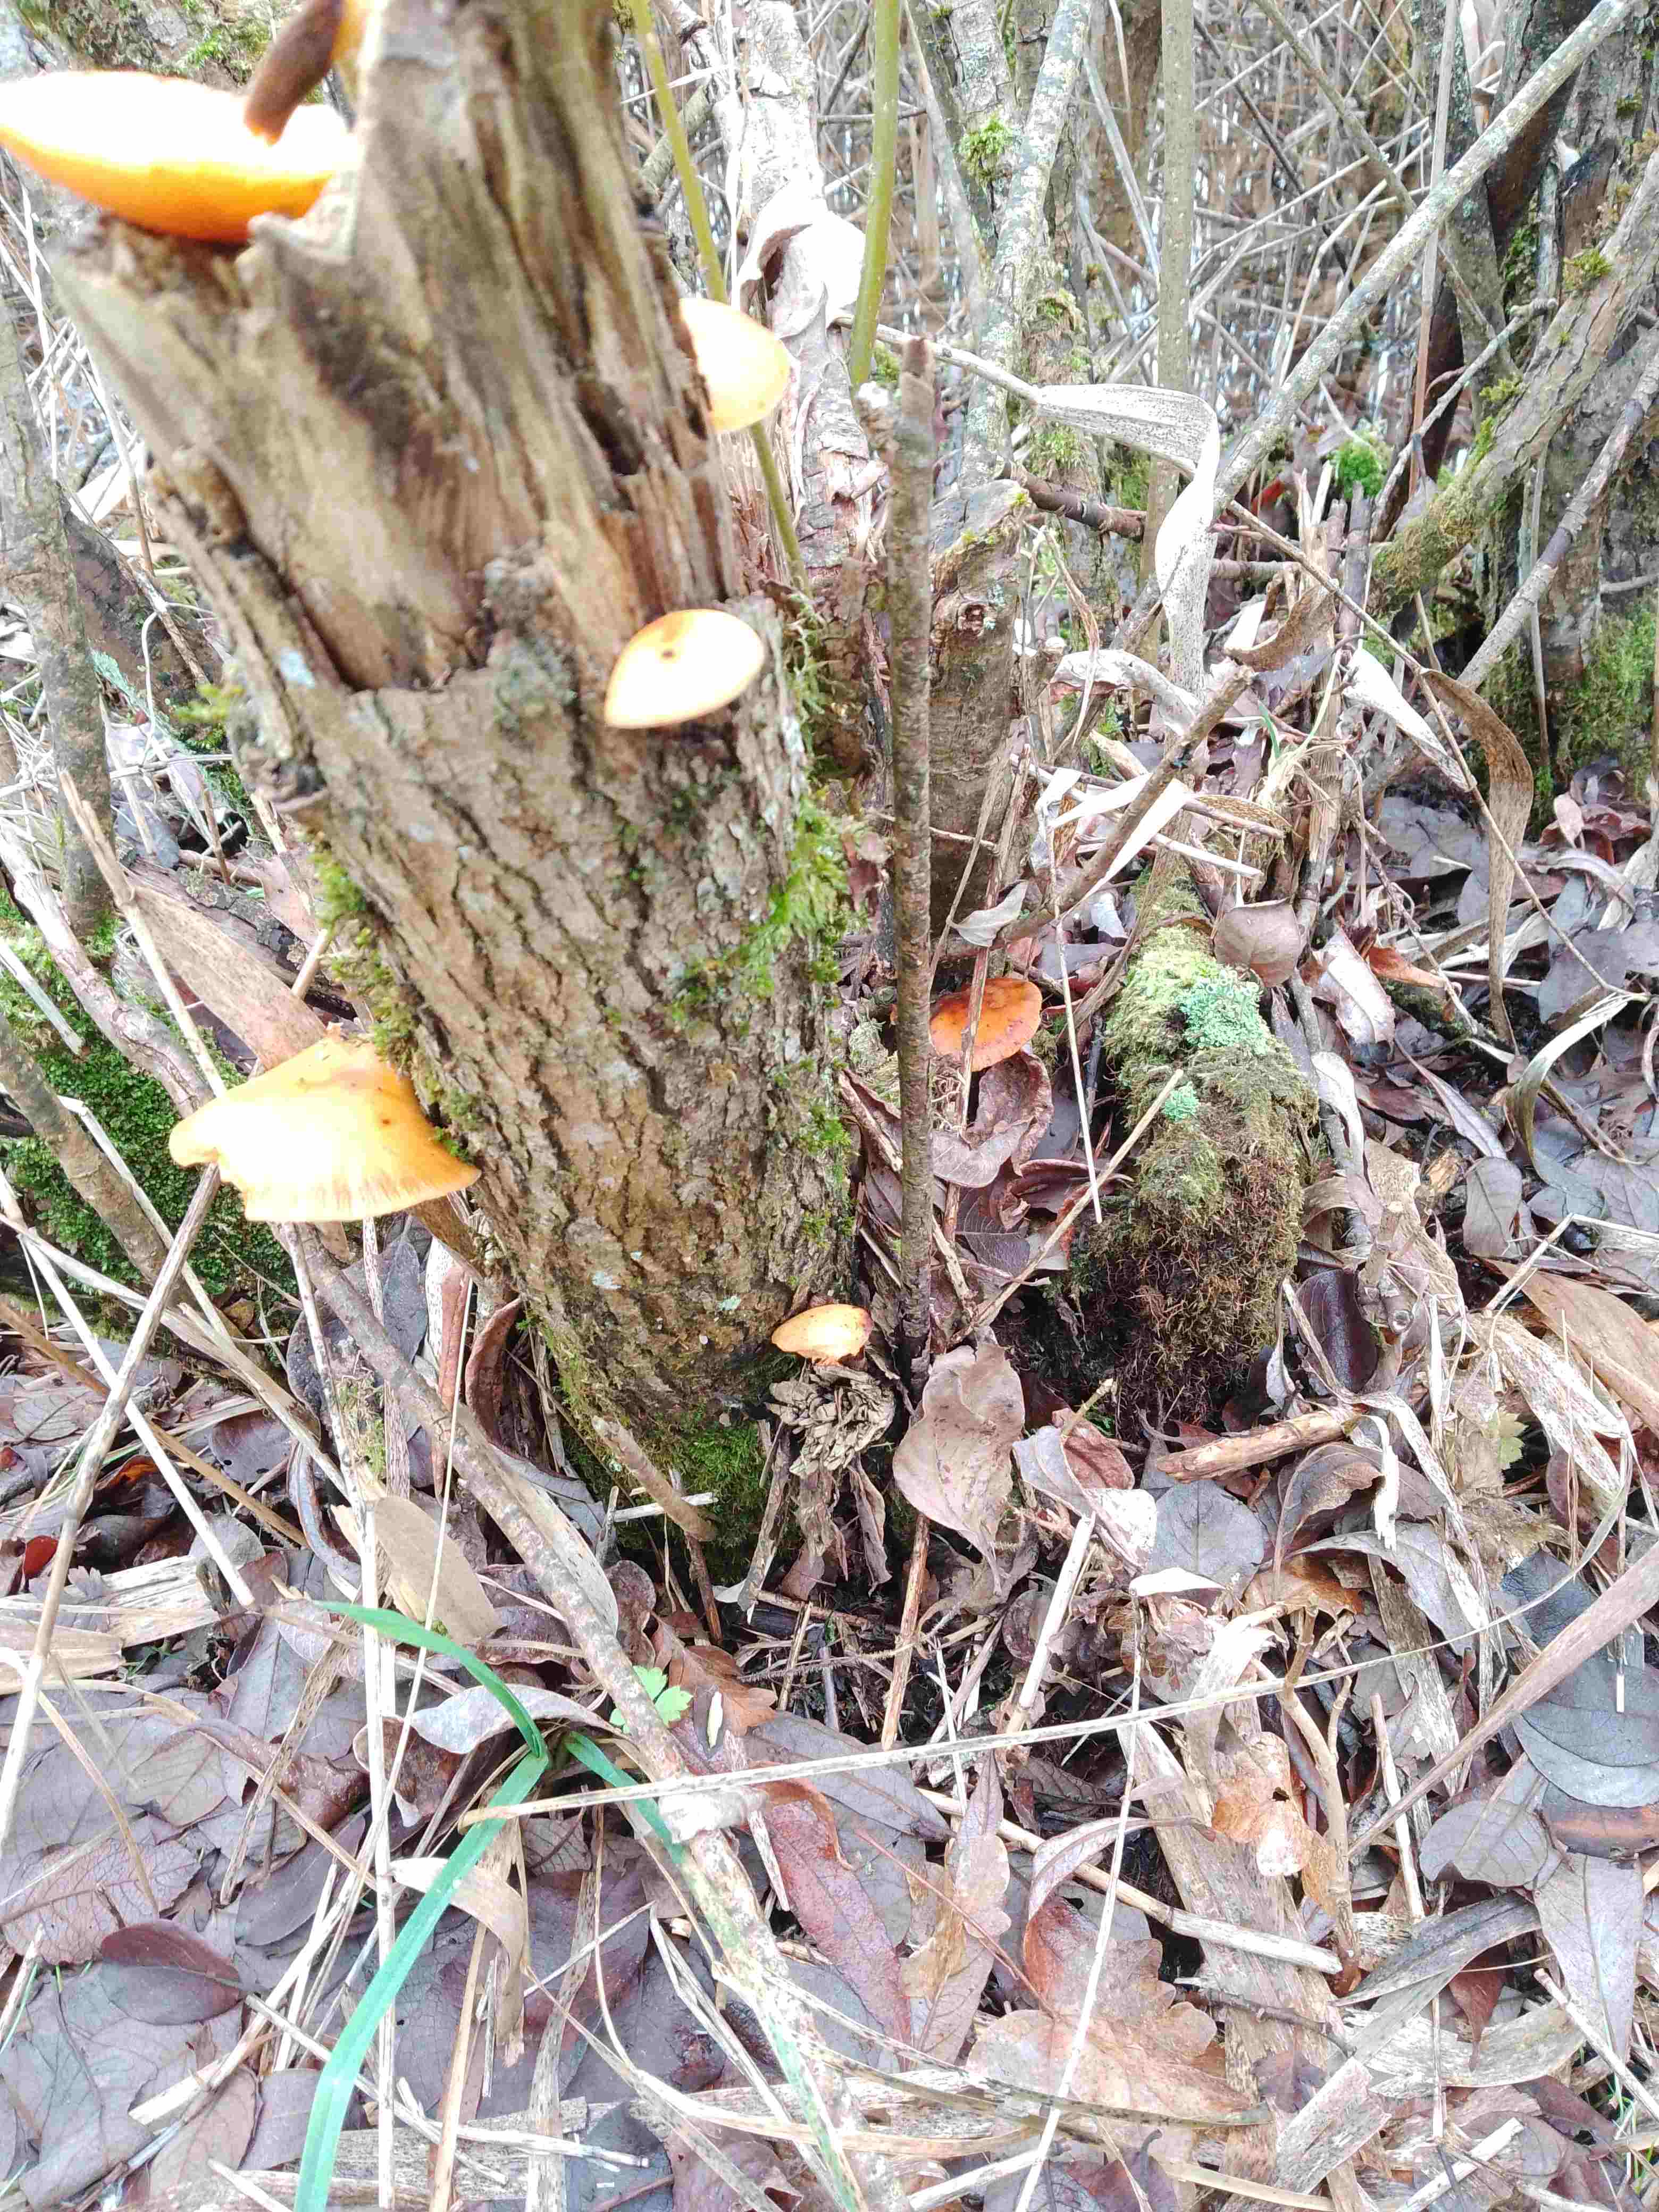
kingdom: Fungi
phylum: Basidiomycota
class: Agaricomycetes
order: Agaricales
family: Physalacriaceae
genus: Flammulina
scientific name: Flammulina
